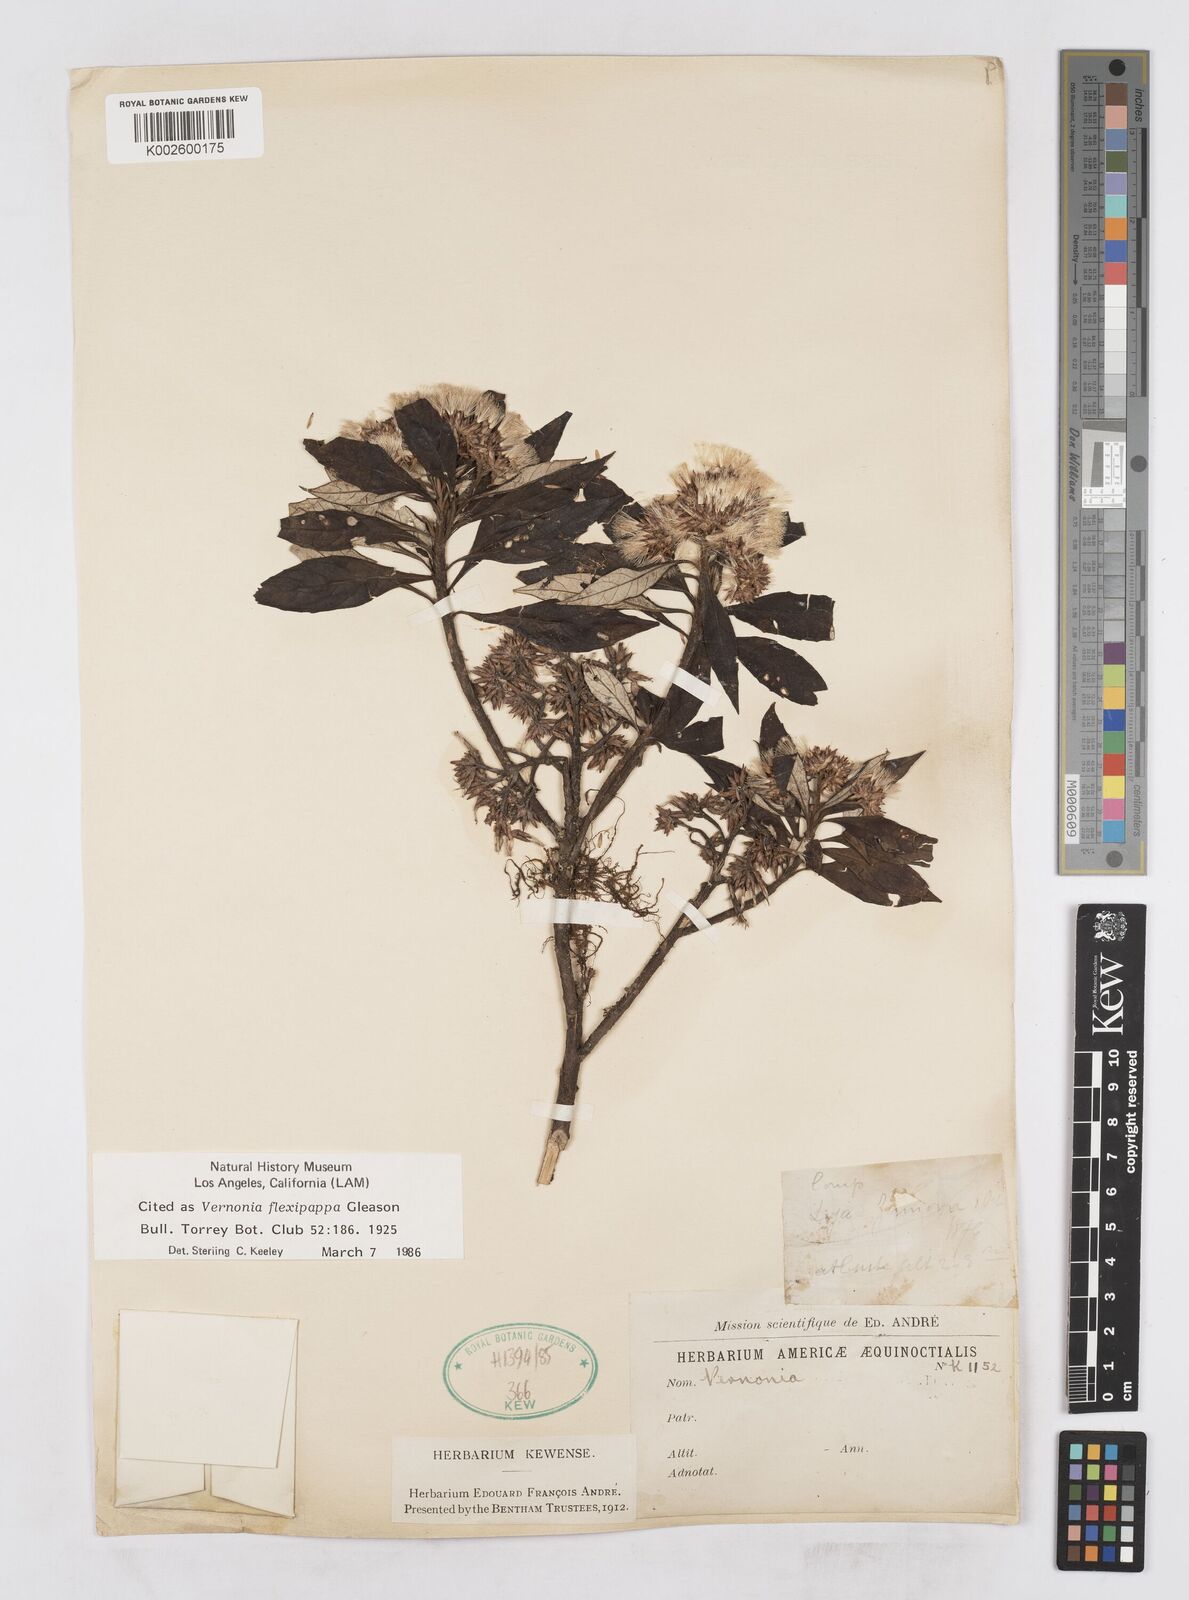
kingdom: Plantae
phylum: Tracheophyta
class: Magnoliopsida
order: Asterales
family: Asteraceae
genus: Cuatrecasanthus
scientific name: Cuatrecasanthus flexipappus
